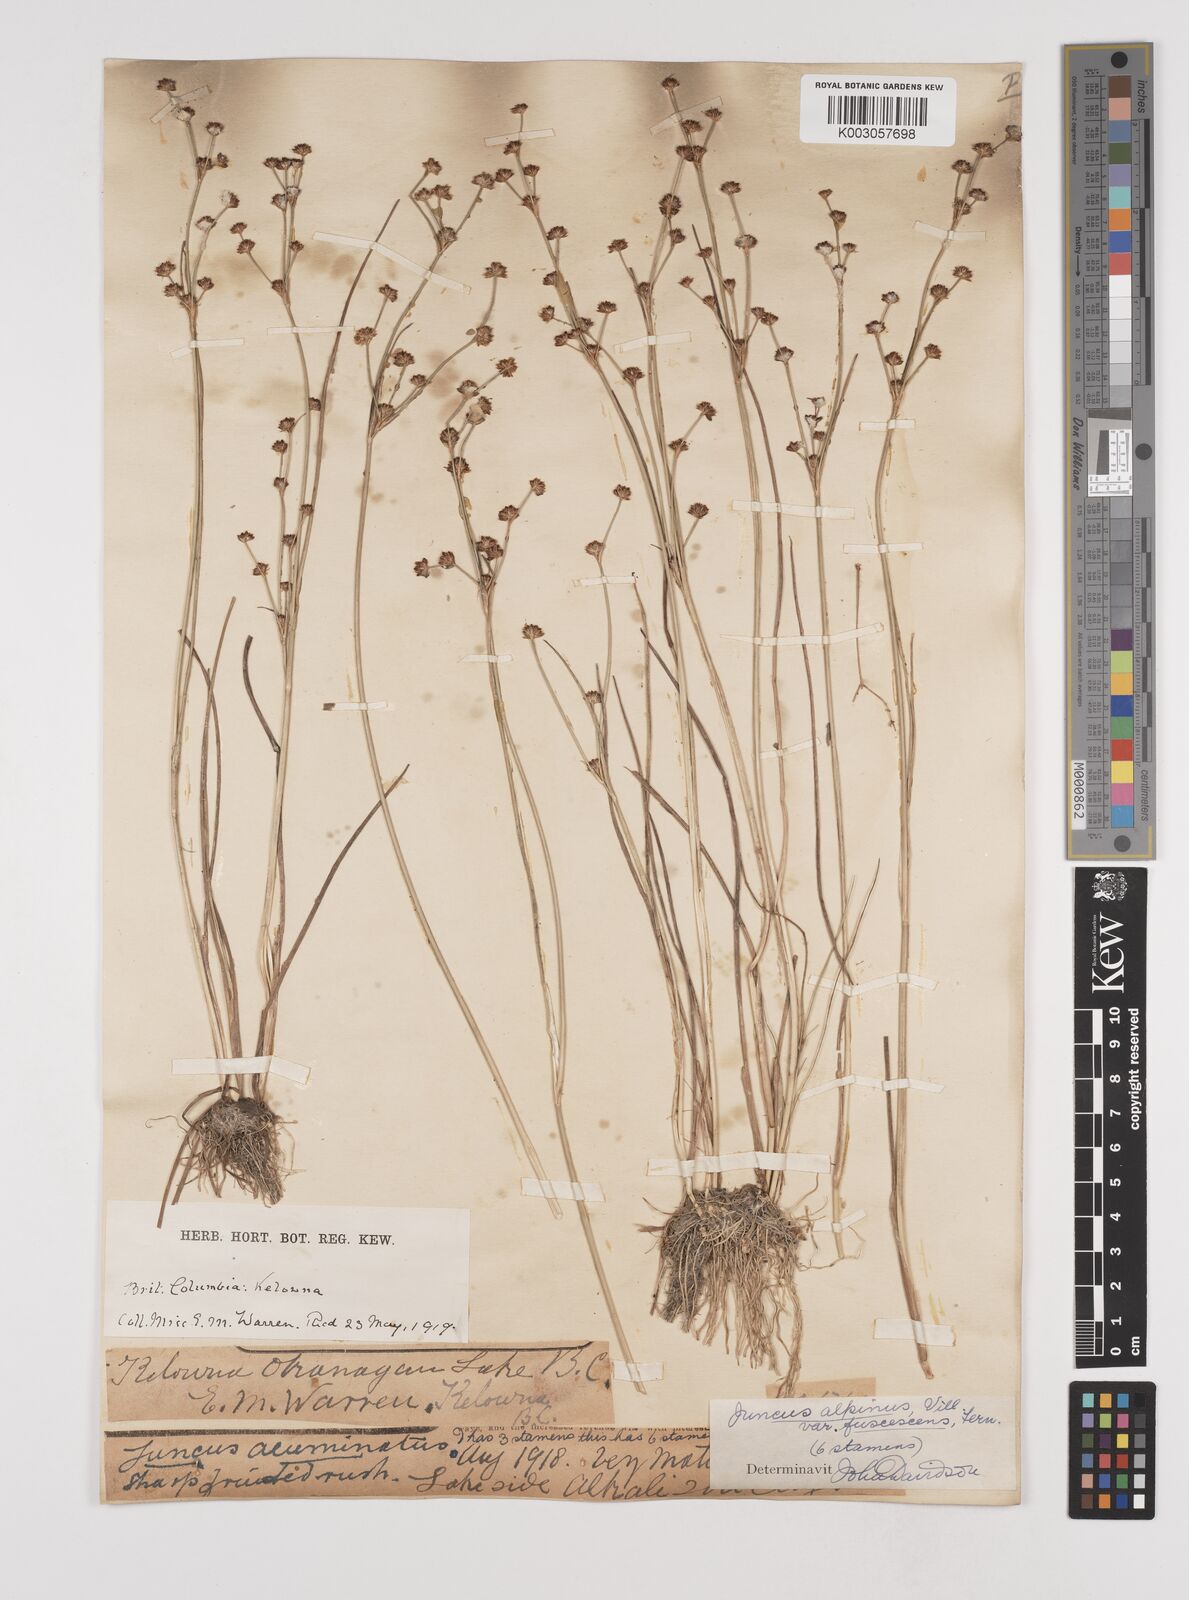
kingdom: Plantae
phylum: Tracheophyta
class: Liliopsida
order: Poales
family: Juncaceae
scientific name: Juncaceae
